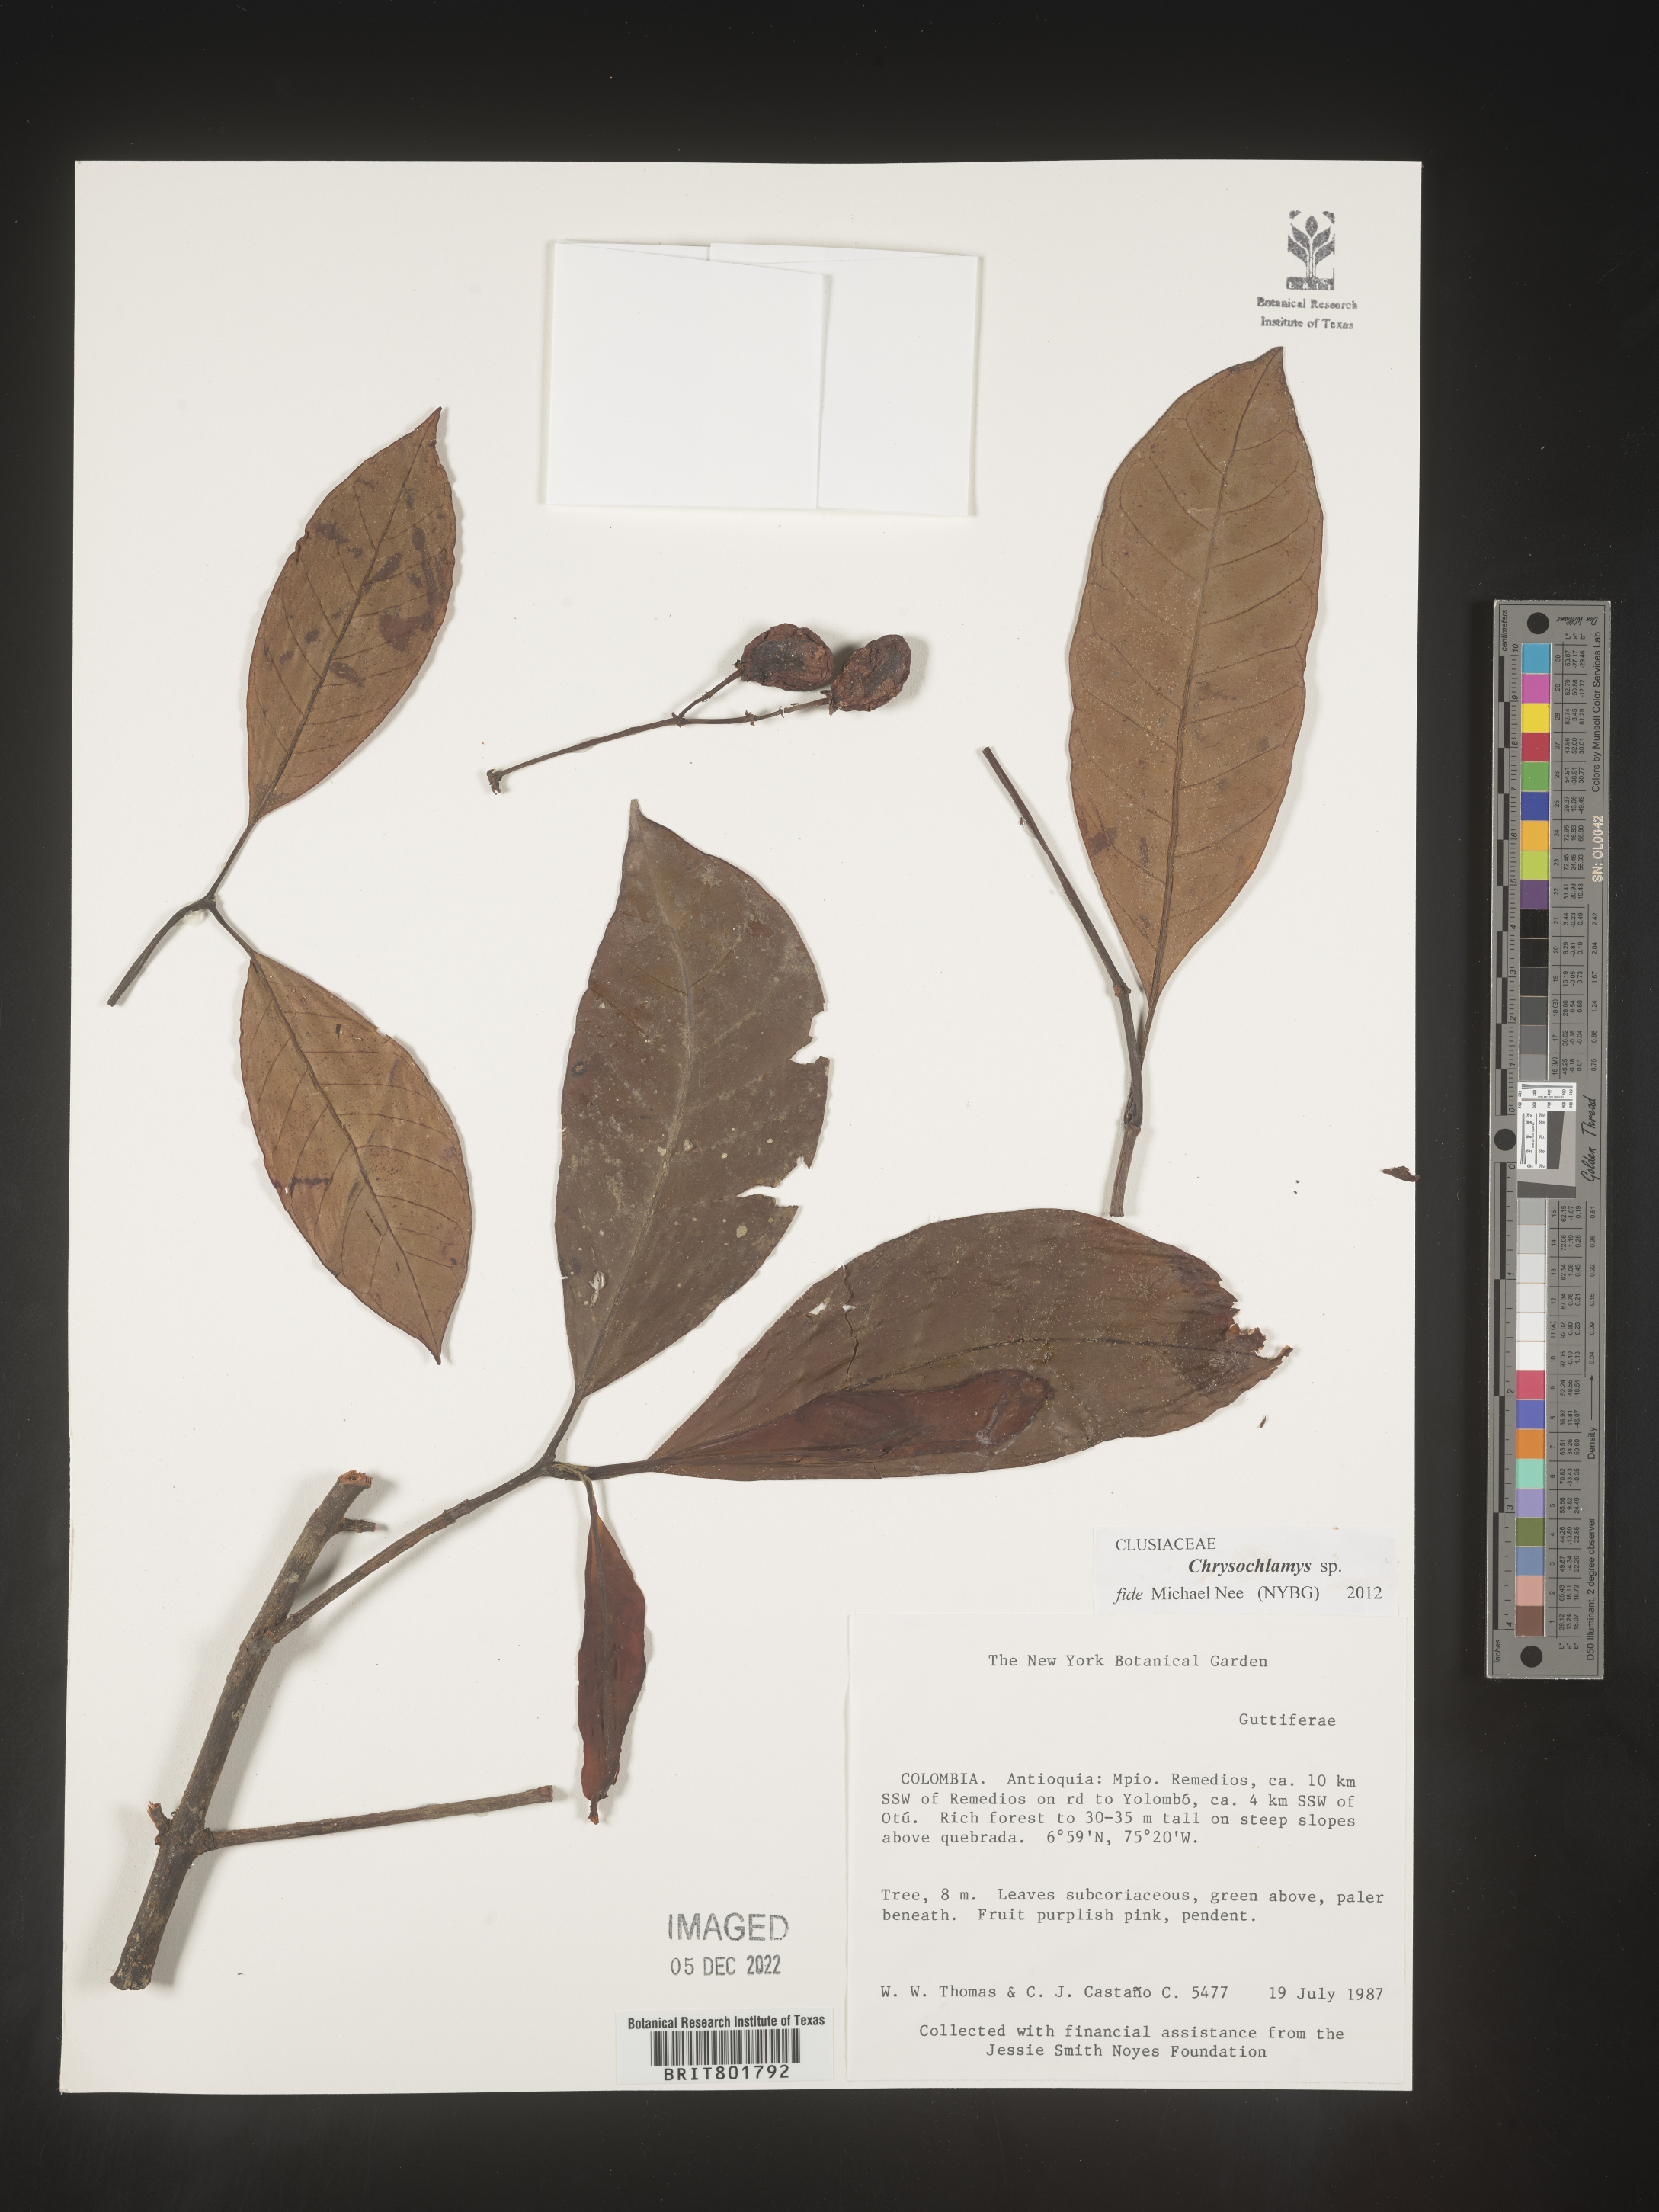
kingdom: Plantae
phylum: Tracheophyta
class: Magnoliopsida
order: Malpighiales
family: Clusiaceae
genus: Chrysochlamys
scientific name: Chrysochlamys
